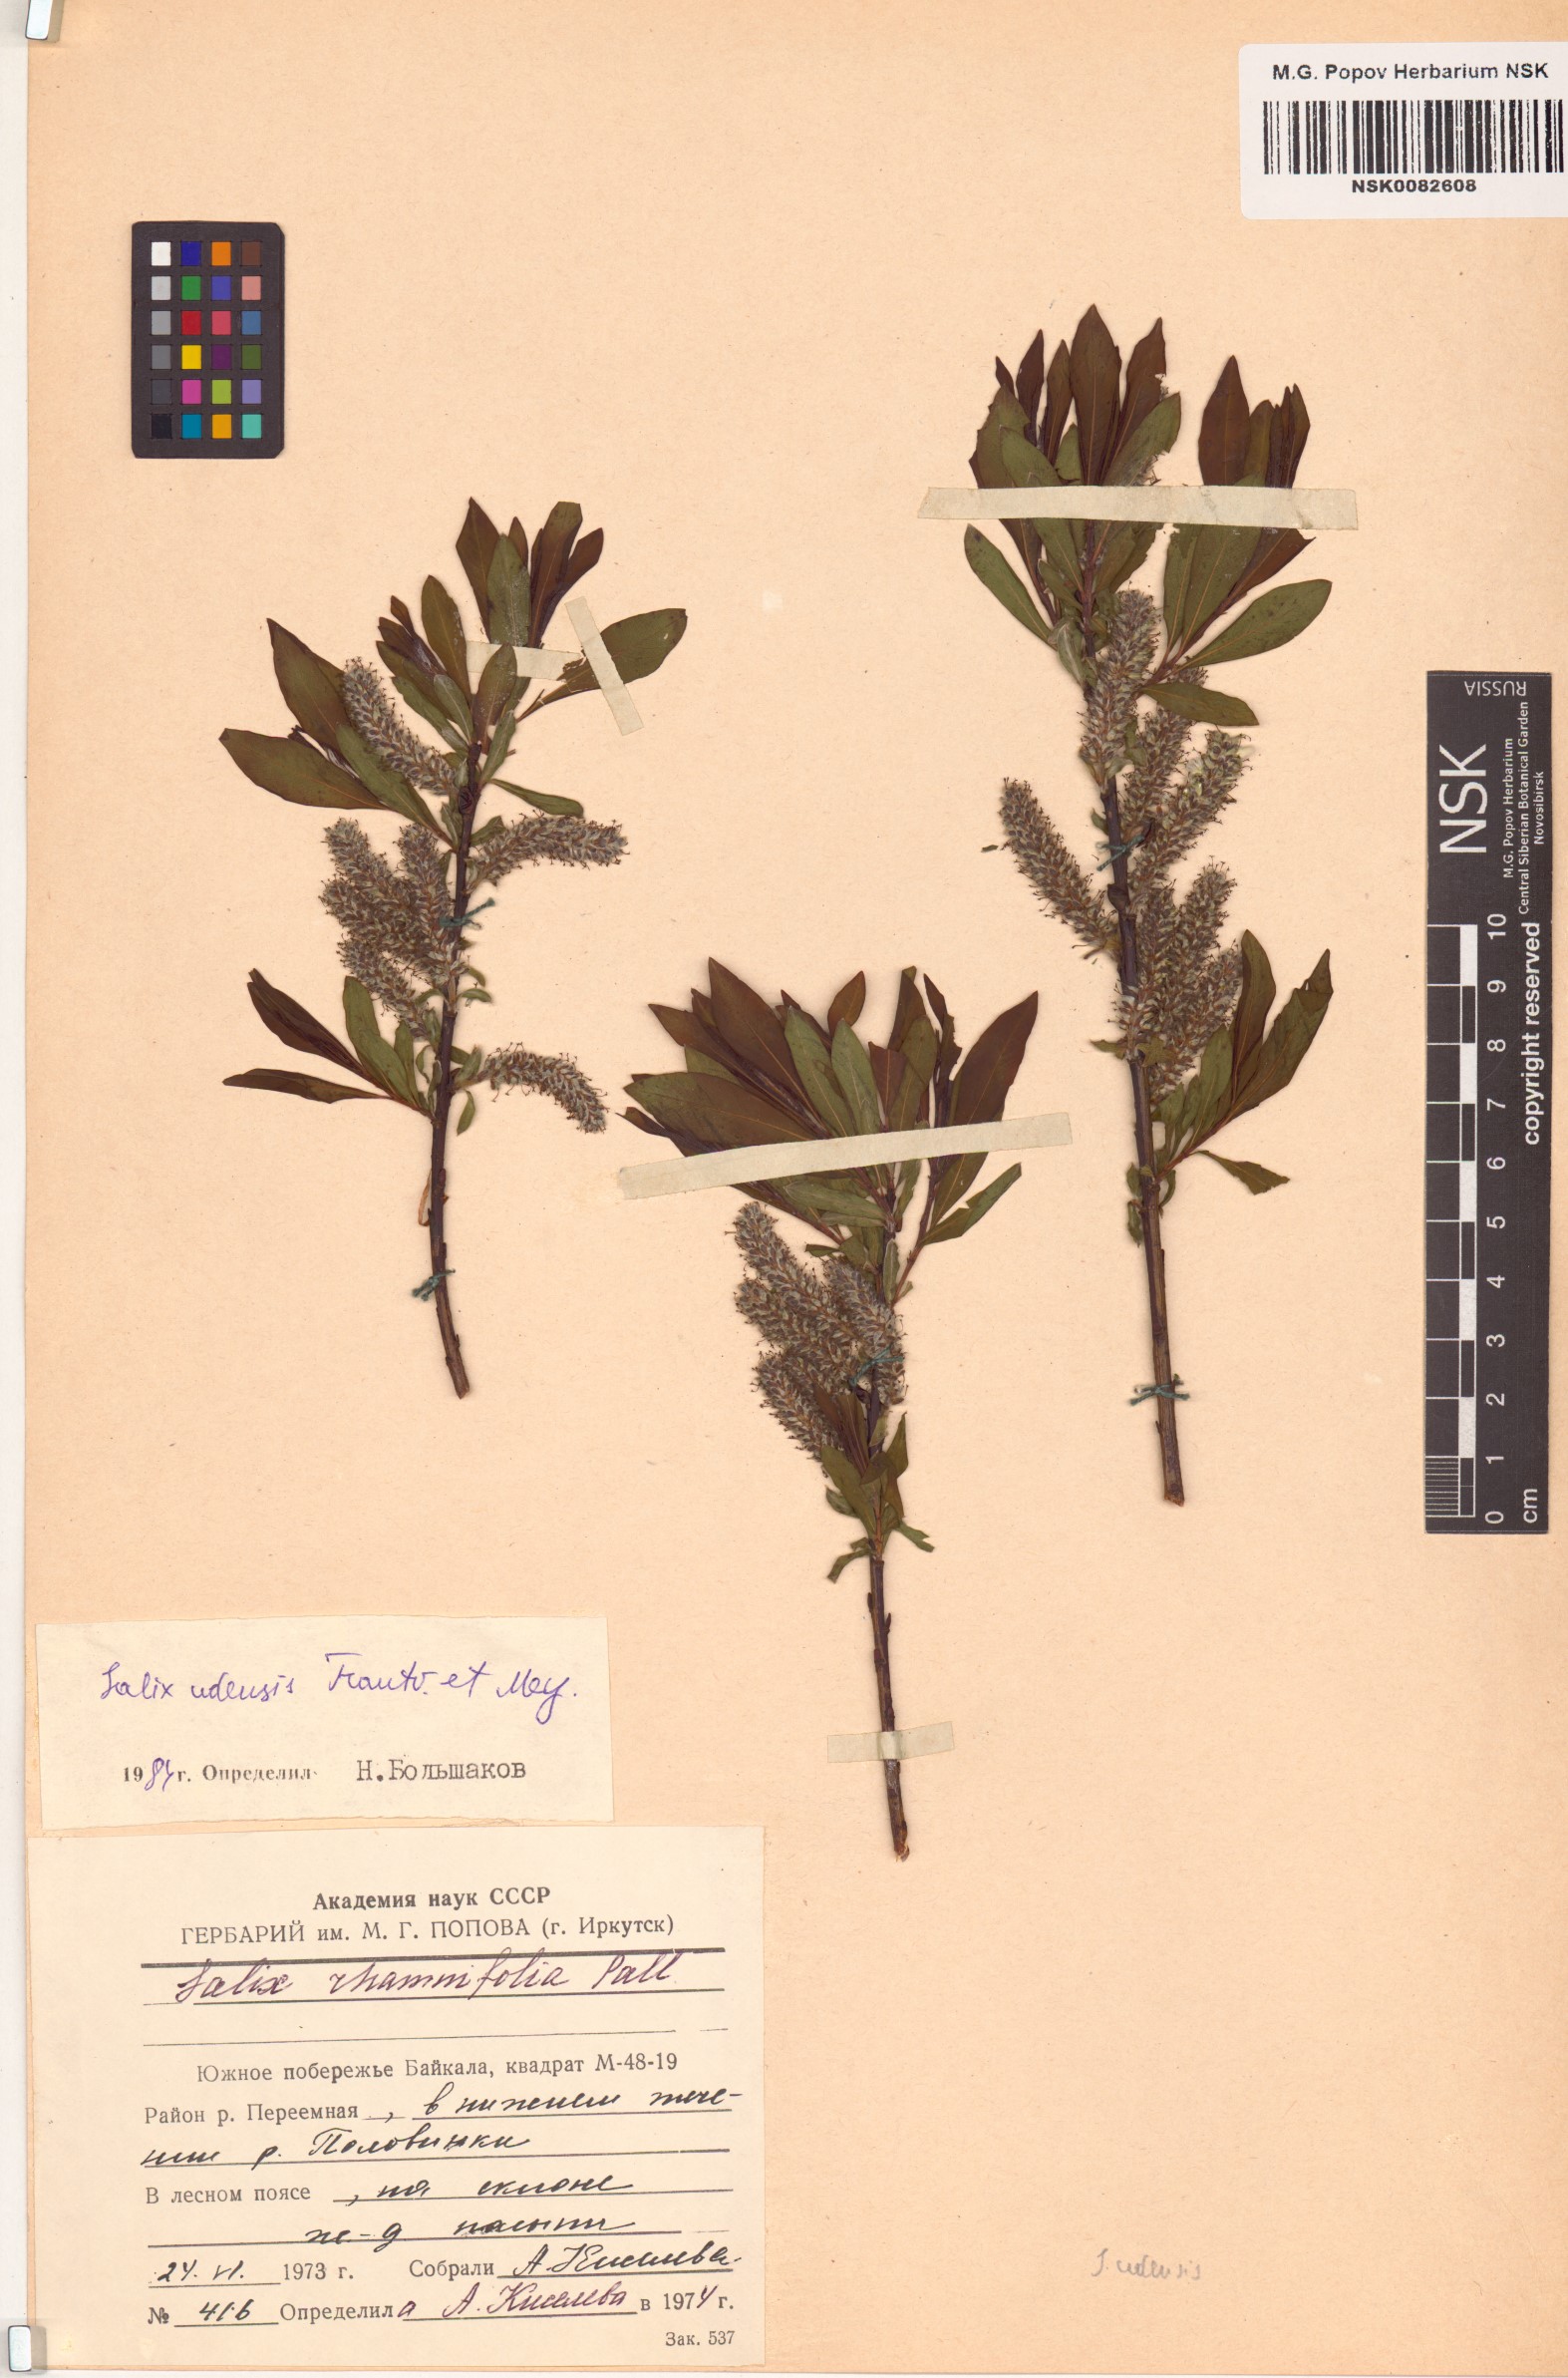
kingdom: Plantae
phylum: Tracheophyta
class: Magnoliopsida
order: Malpighiales
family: Salicaceae
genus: Salix
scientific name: Salix udensis
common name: Sachalin willow
